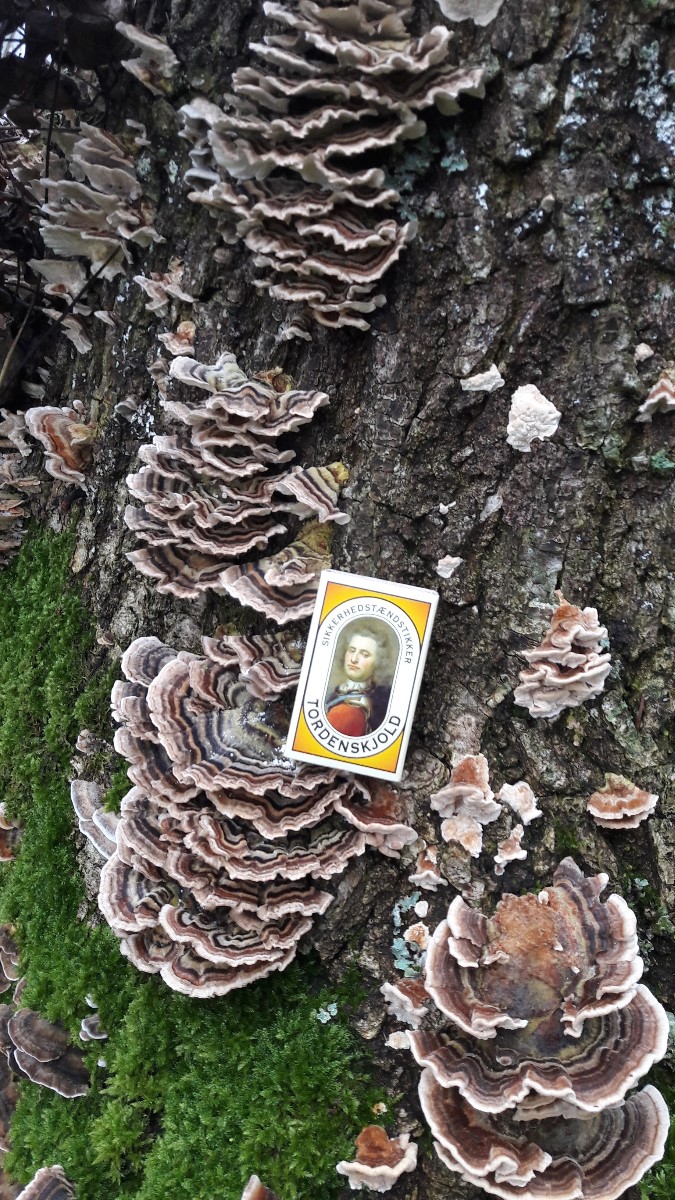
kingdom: Fungi
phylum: Basidiomycota
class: Agaricomycetes
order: Polyporales
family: Polyporaceae
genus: Trametes
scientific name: Trametes versicolor
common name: broget læderporesvamp
